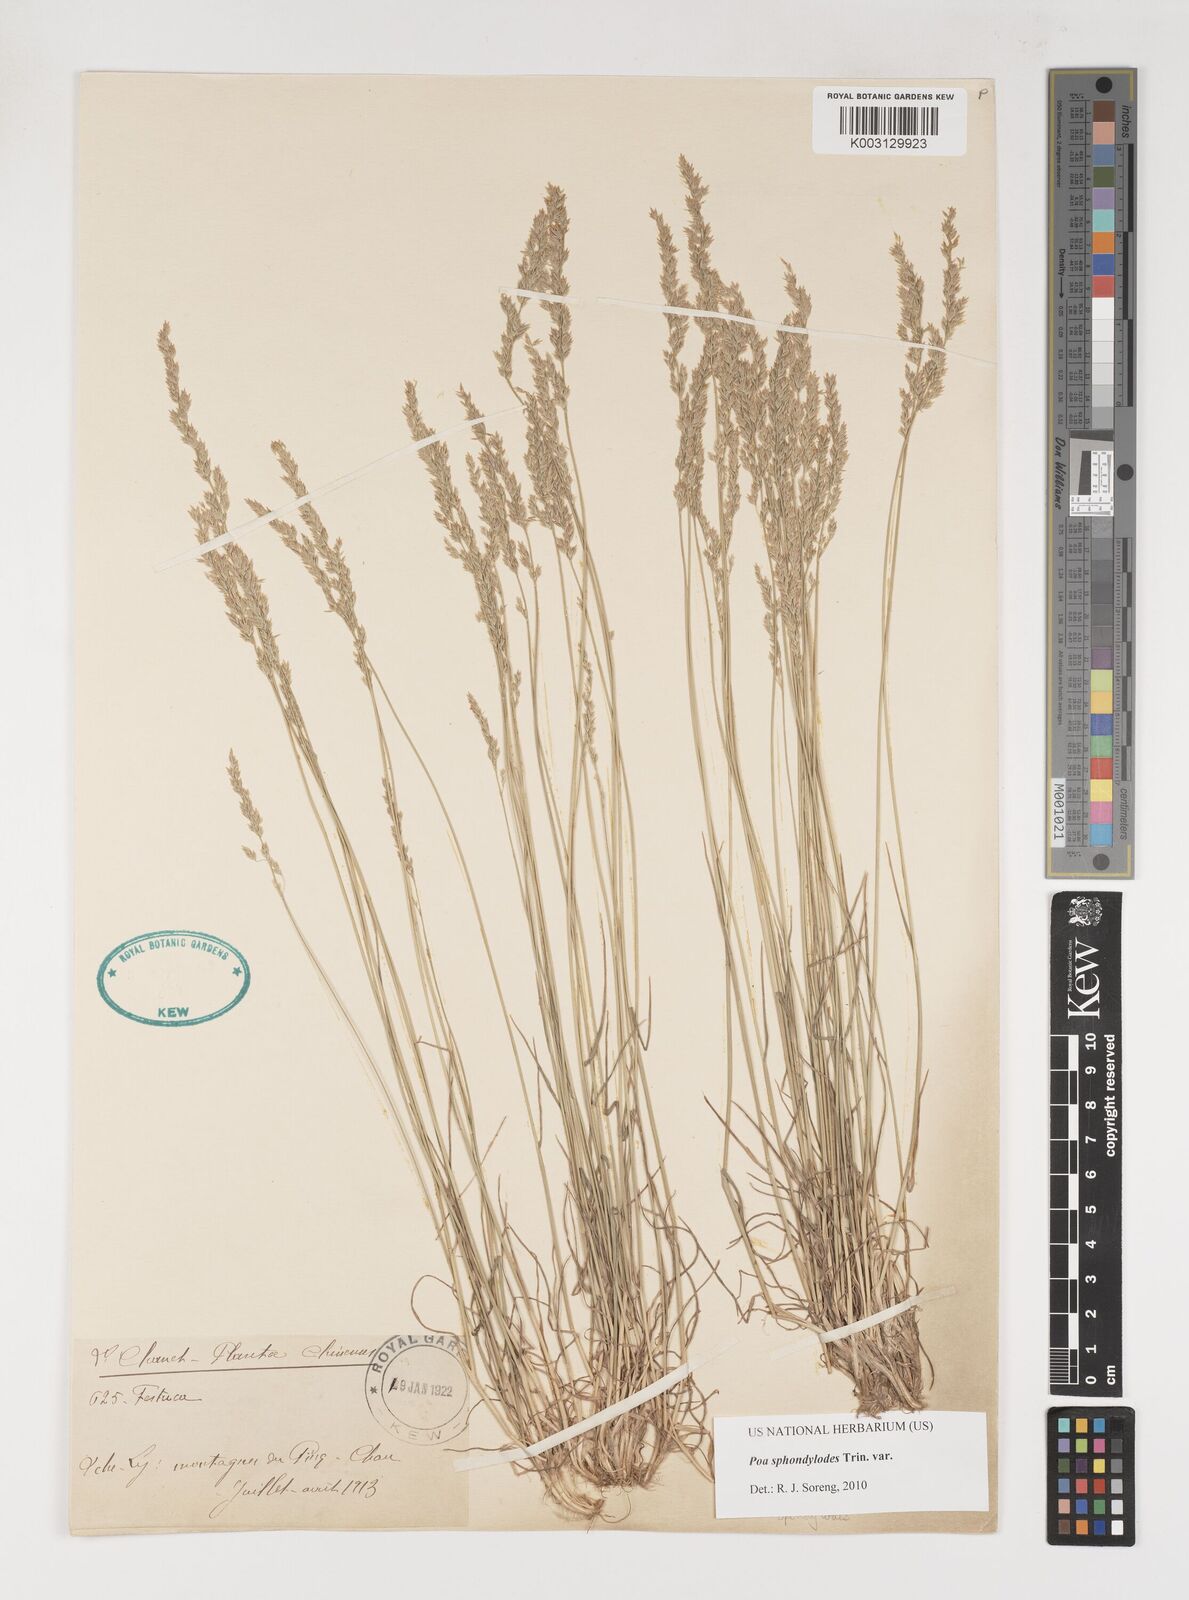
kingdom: Plantae
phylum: Tracheophyta
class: Liliopsida
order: Poales
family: Poaceae
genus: Poa
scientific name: Poa sphondylodes
